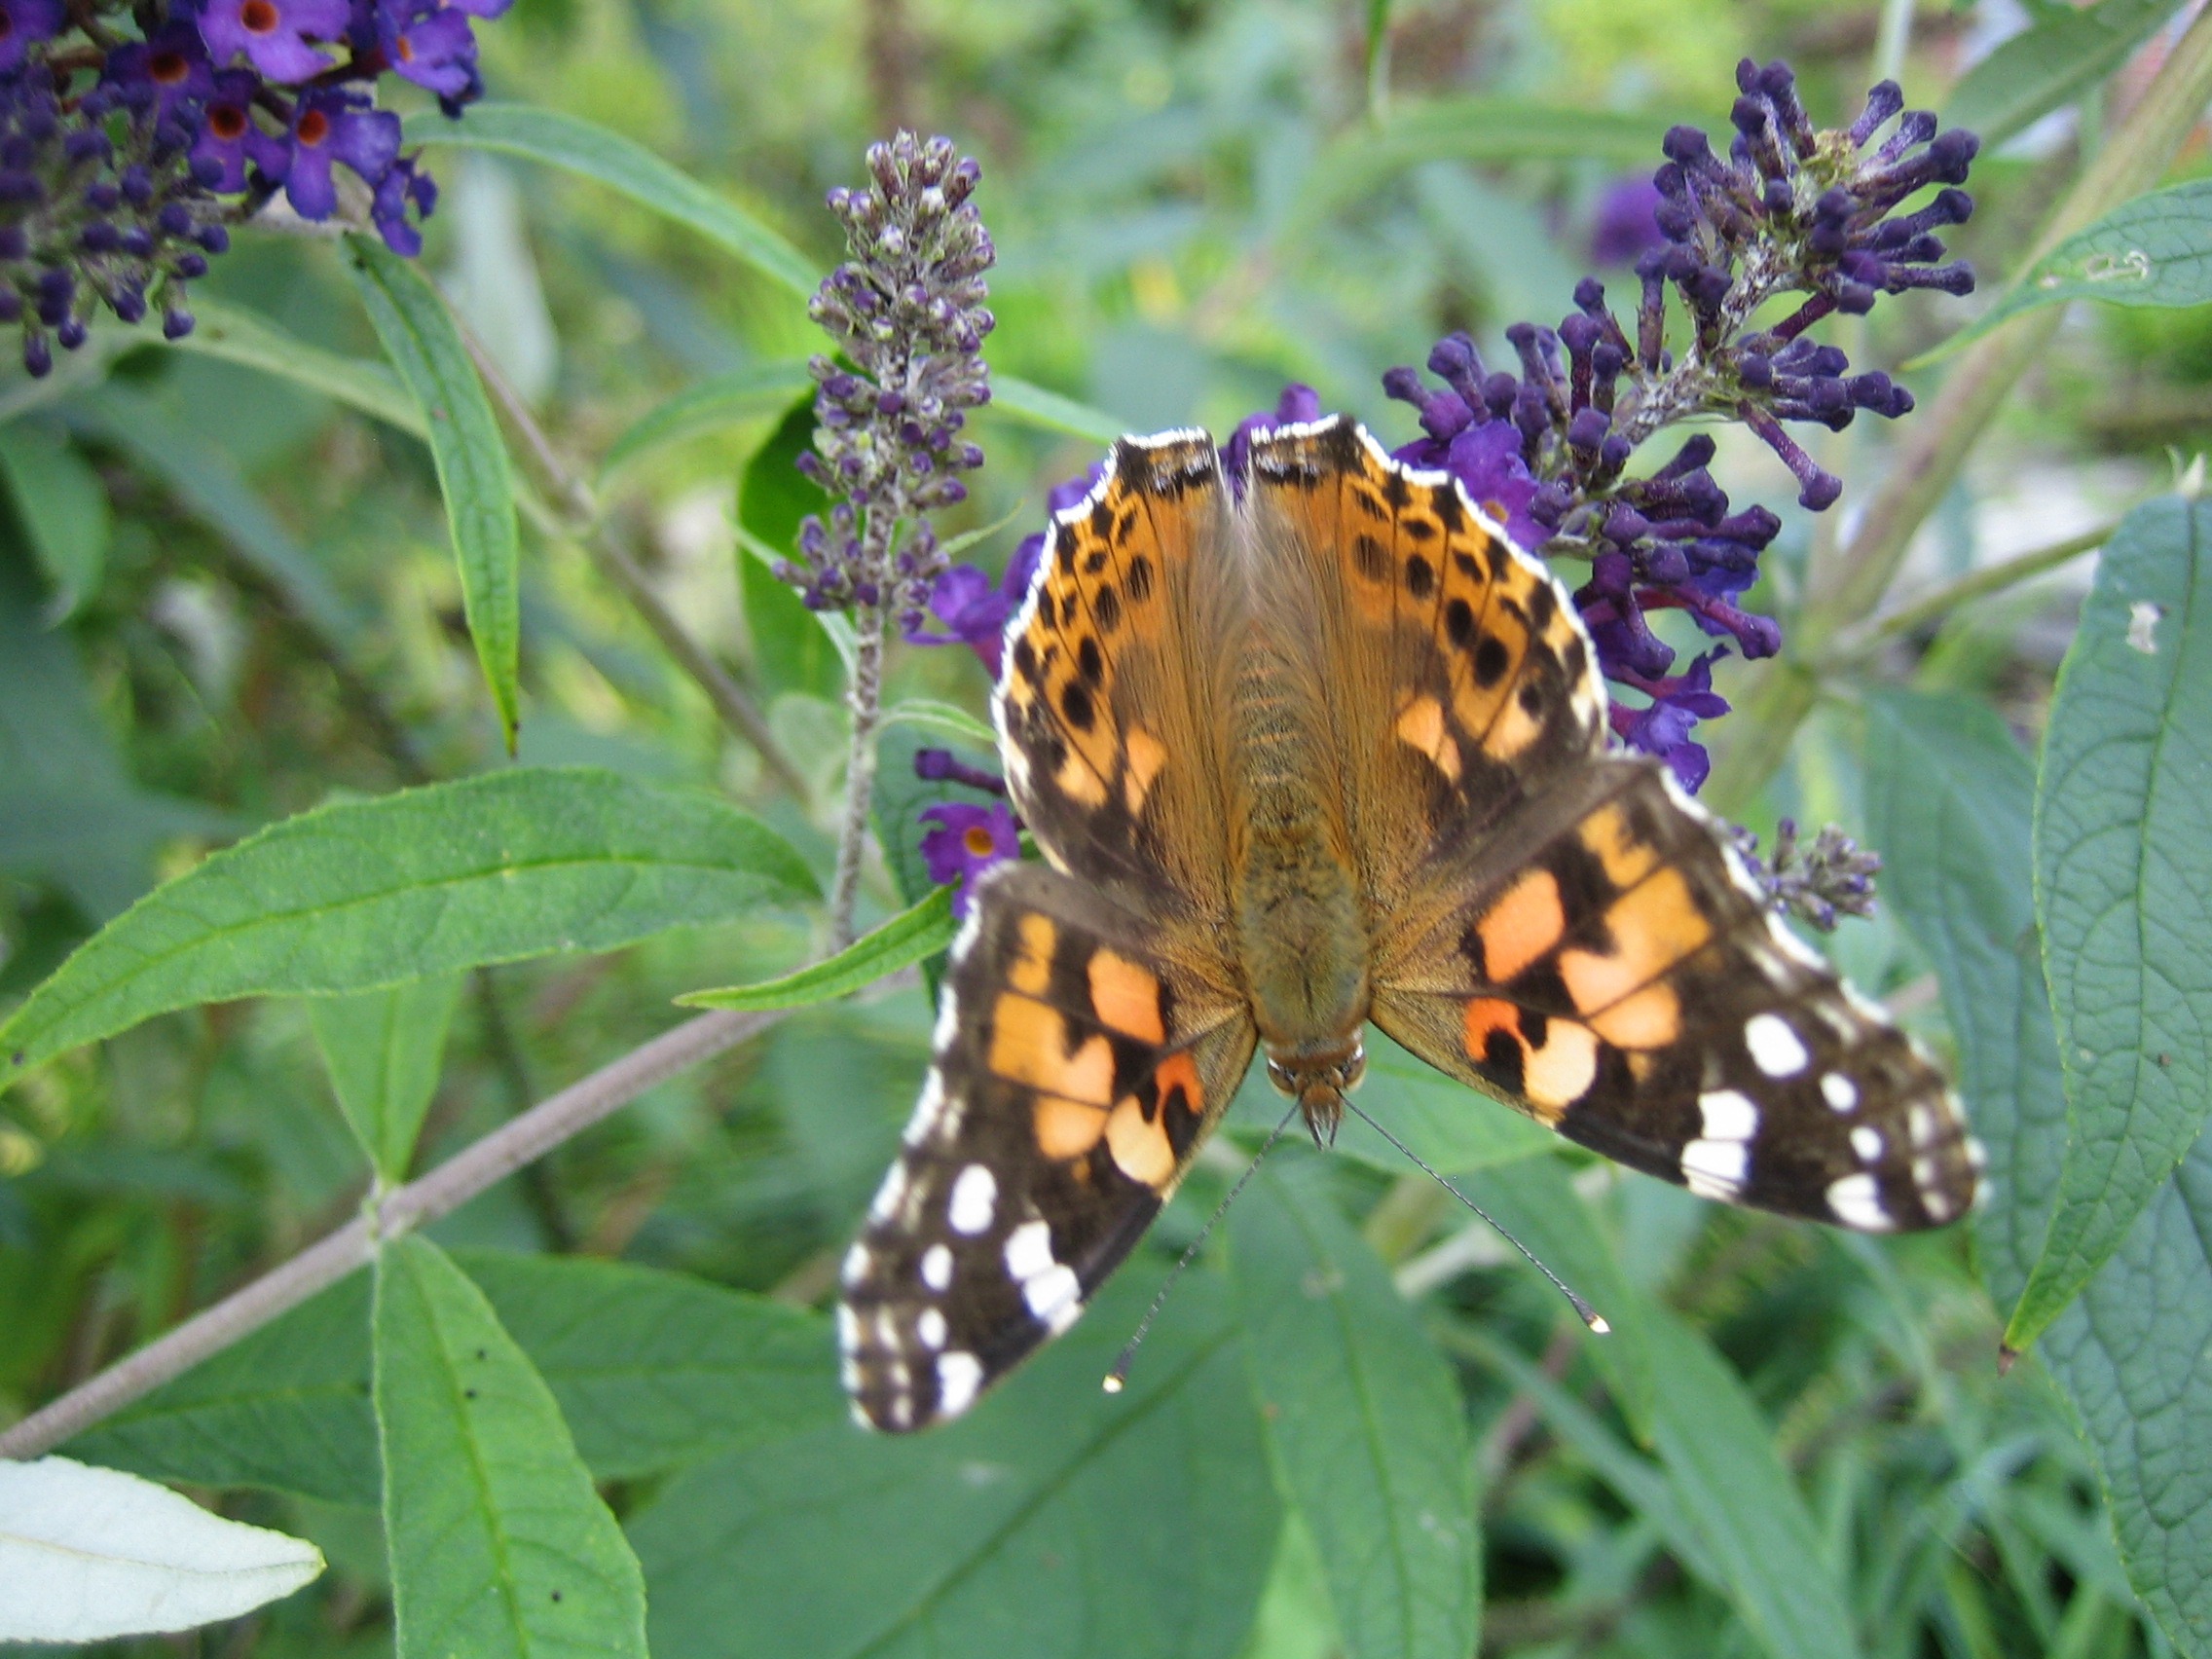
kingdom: Animalia
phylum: Arthropoda
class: Insecta
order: Lepidoptera
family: Nymphalidae
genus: Vanessa
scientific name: Vanessa cardui
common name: Tidselsommerfugl
